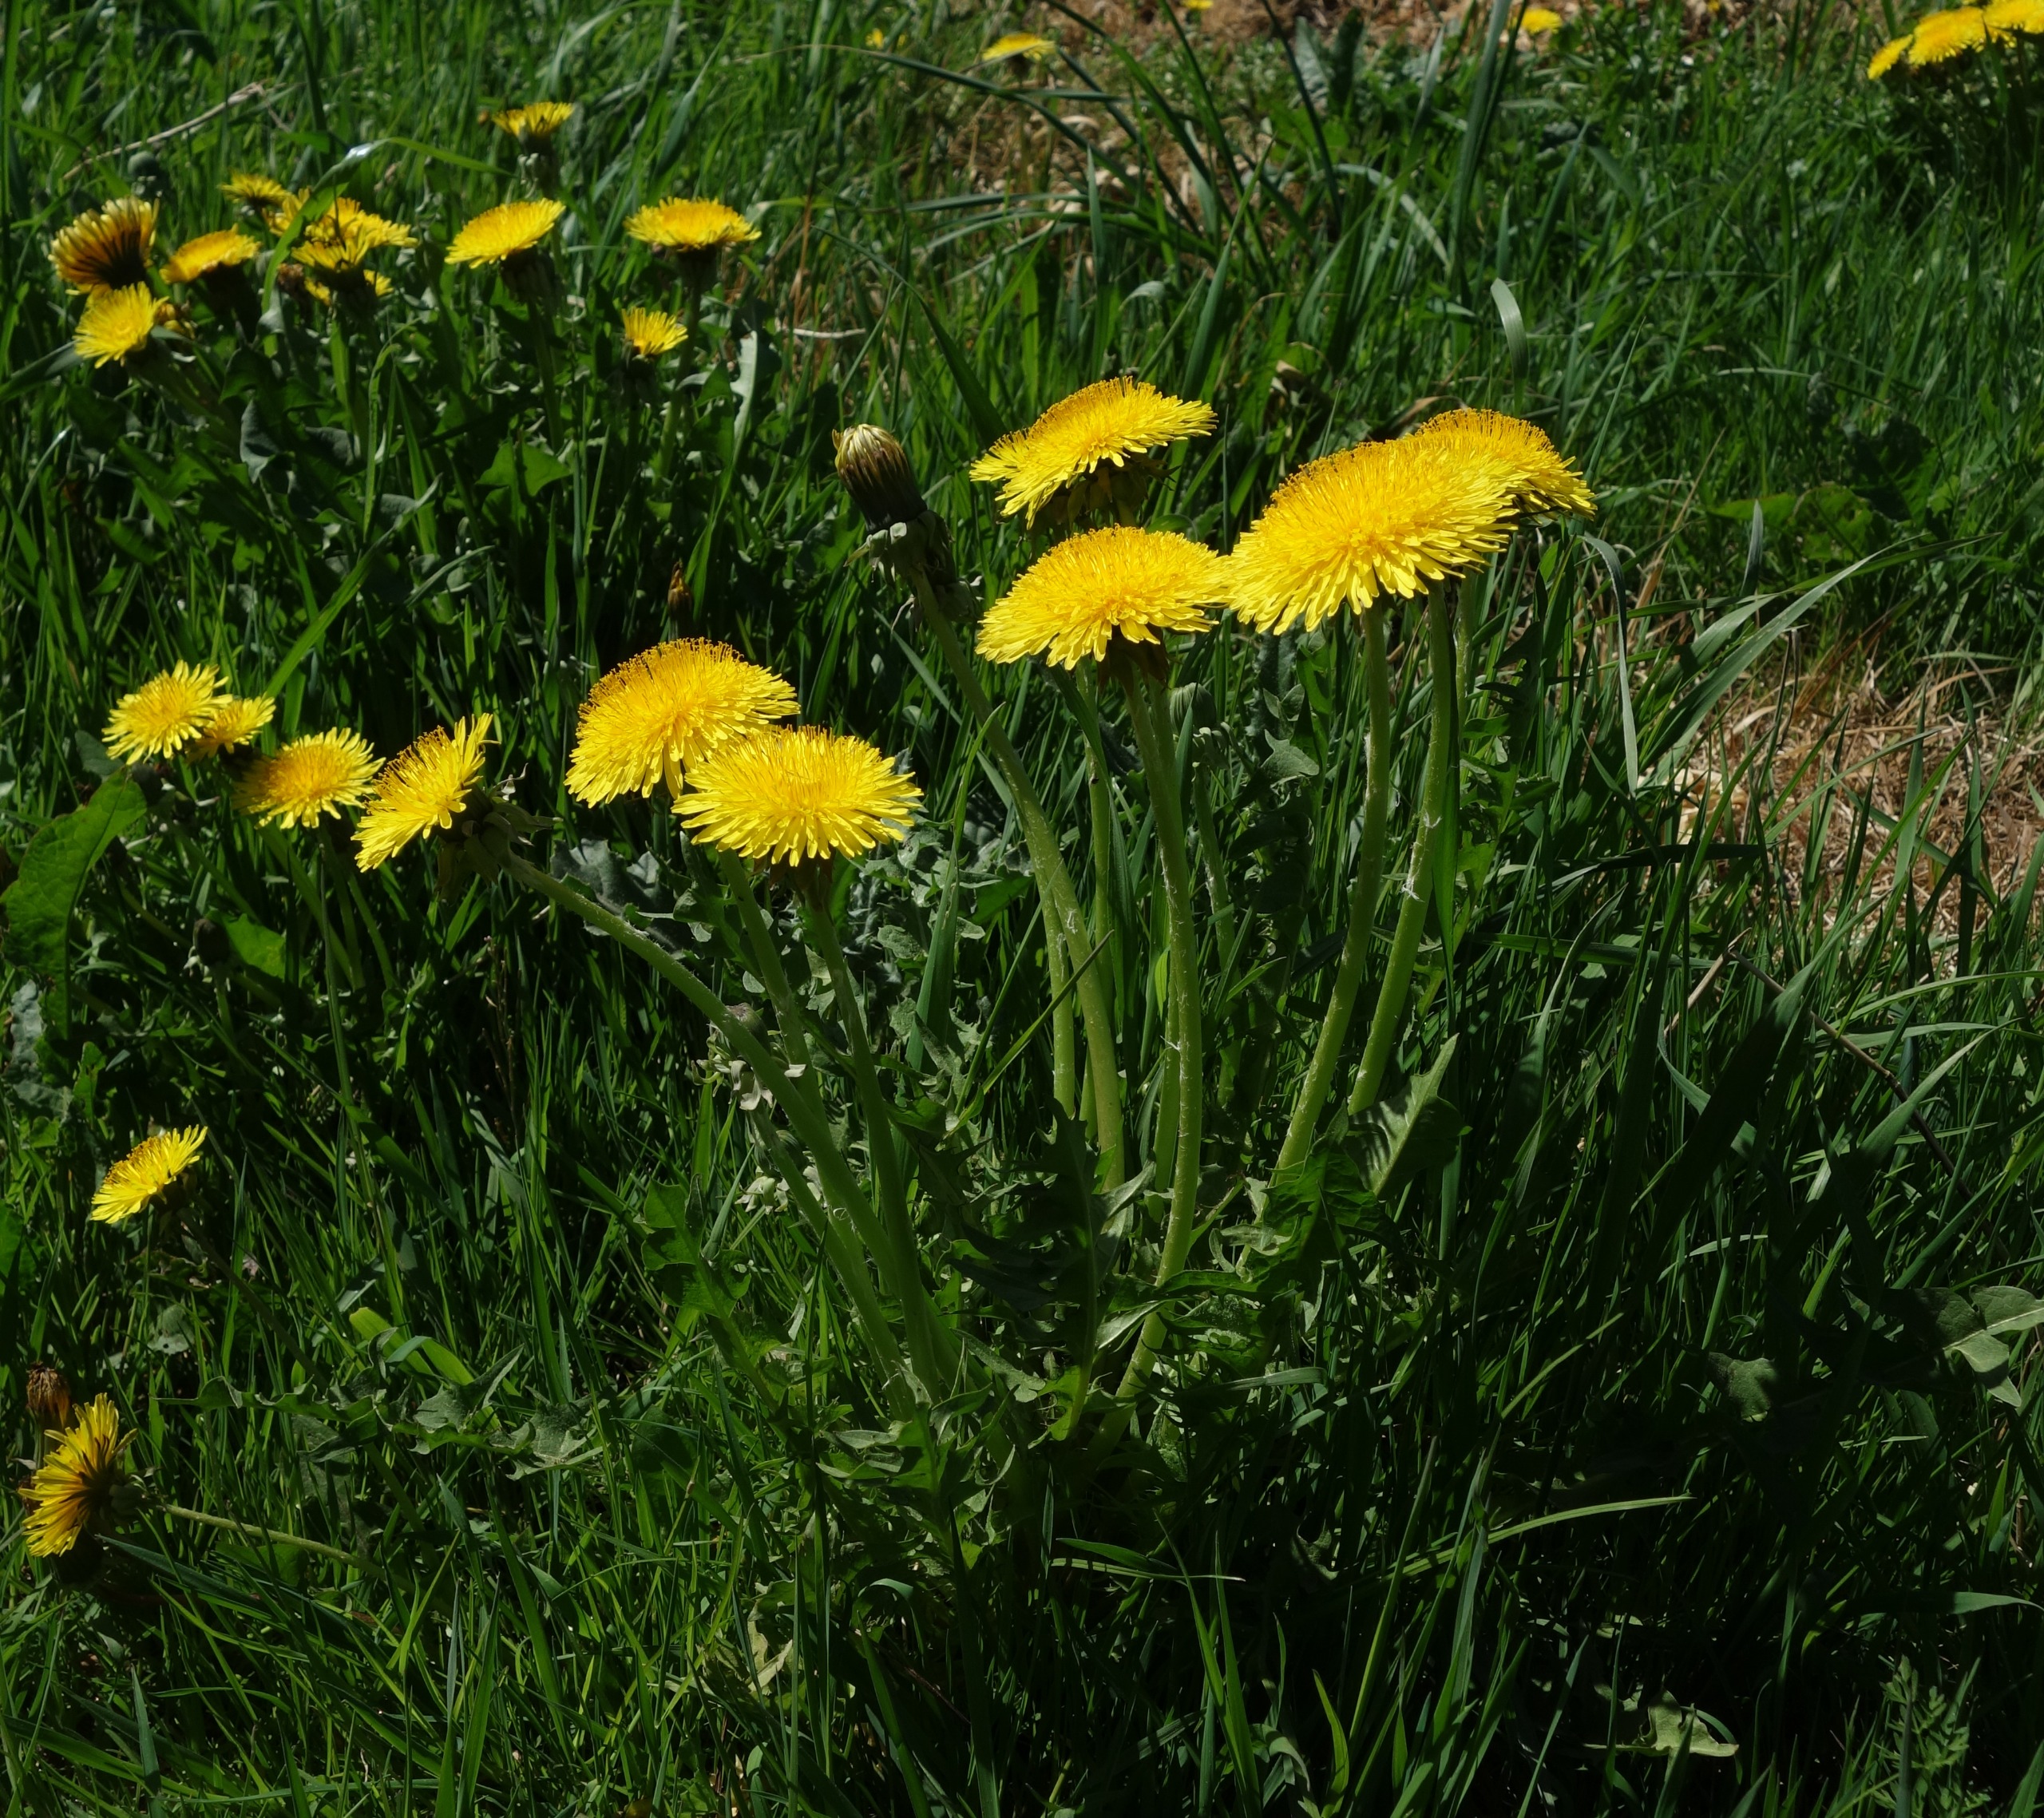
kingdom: Plantae
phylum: Tracheophyta
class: Magnoliopsida
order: Asterales
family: Asteraceae
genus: Taraxacum
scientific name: Taraxacum
